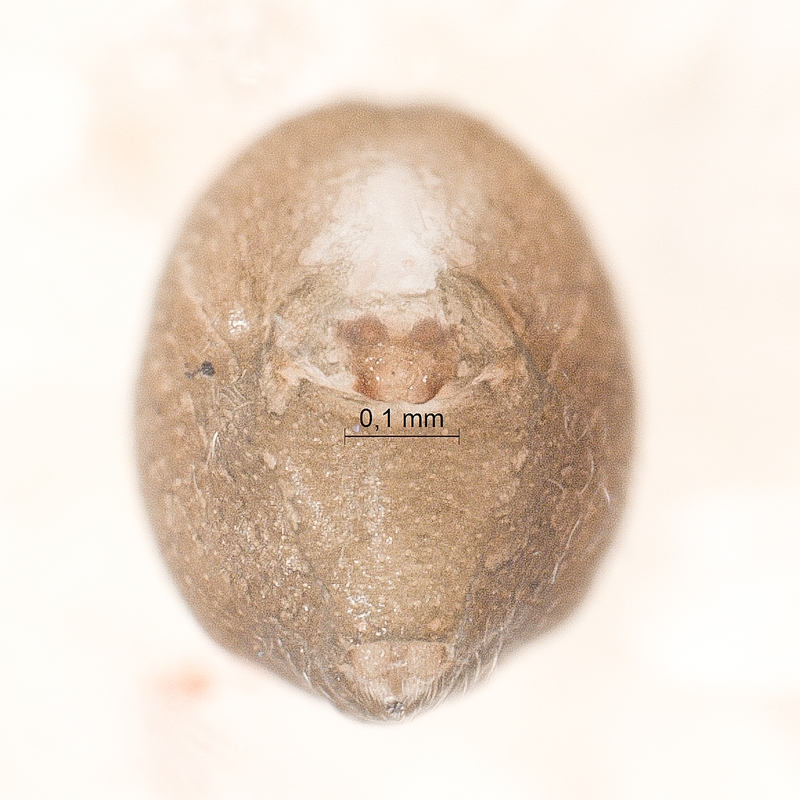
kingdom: Animalia
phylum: Arthropoda
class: Arachnida
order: Araneae
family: Linyphiidae
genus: Minyriolus
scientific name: Minyriolus pusillus
